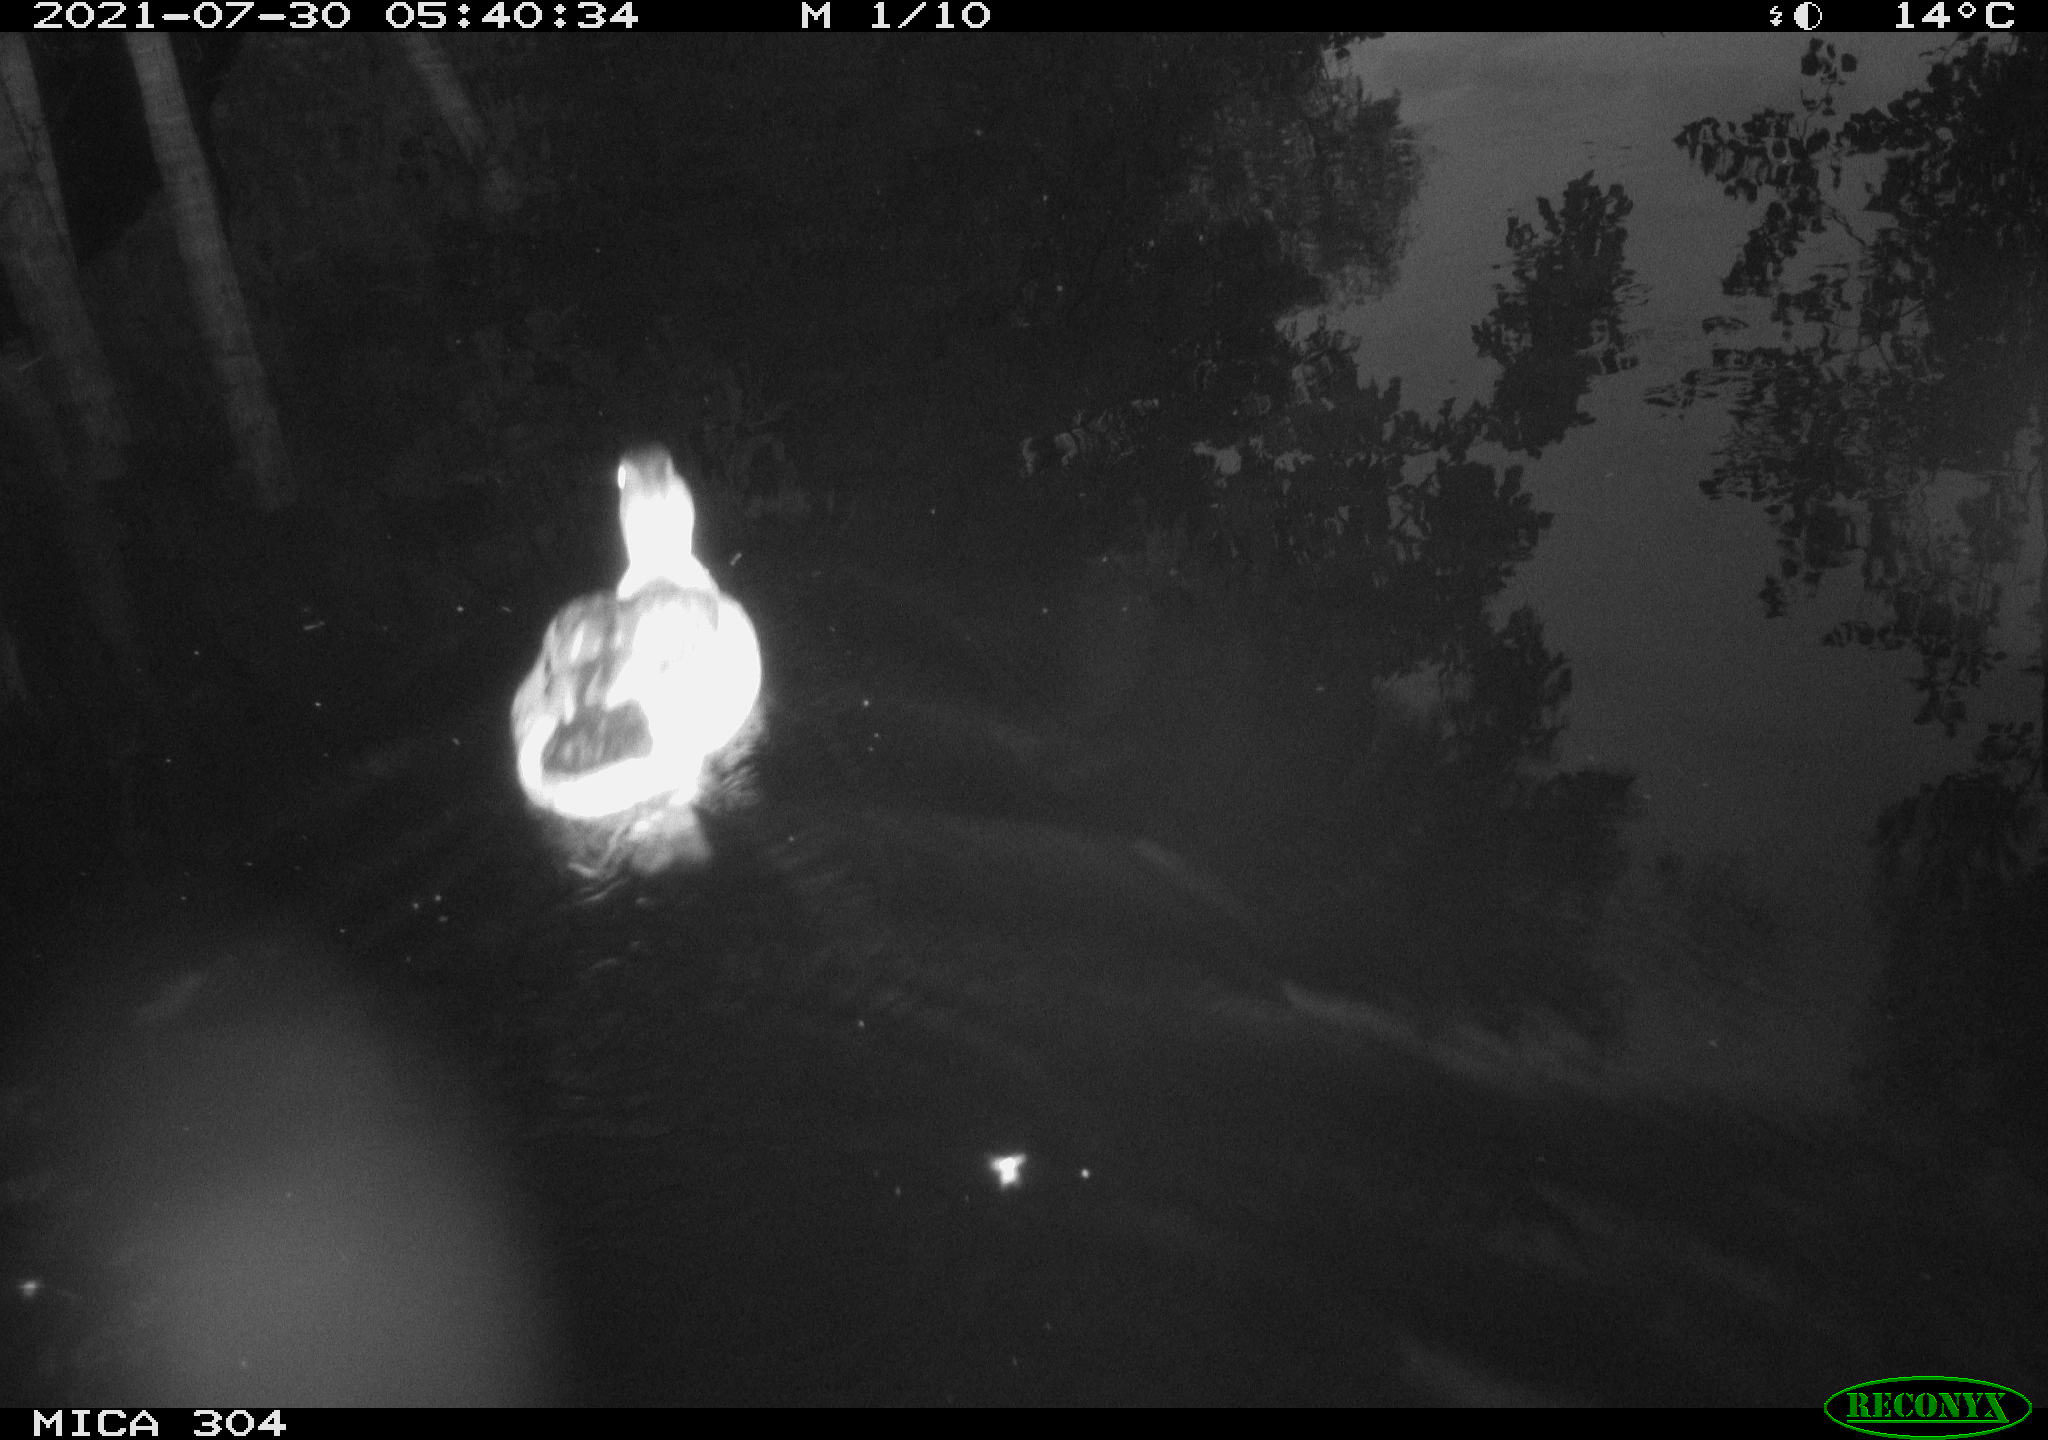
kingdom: Animalia
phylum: Chordata
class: Aves
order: Anseriformes
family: Anatidae
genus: Anas
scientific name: Anas platyrhynchos
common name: Mallard
